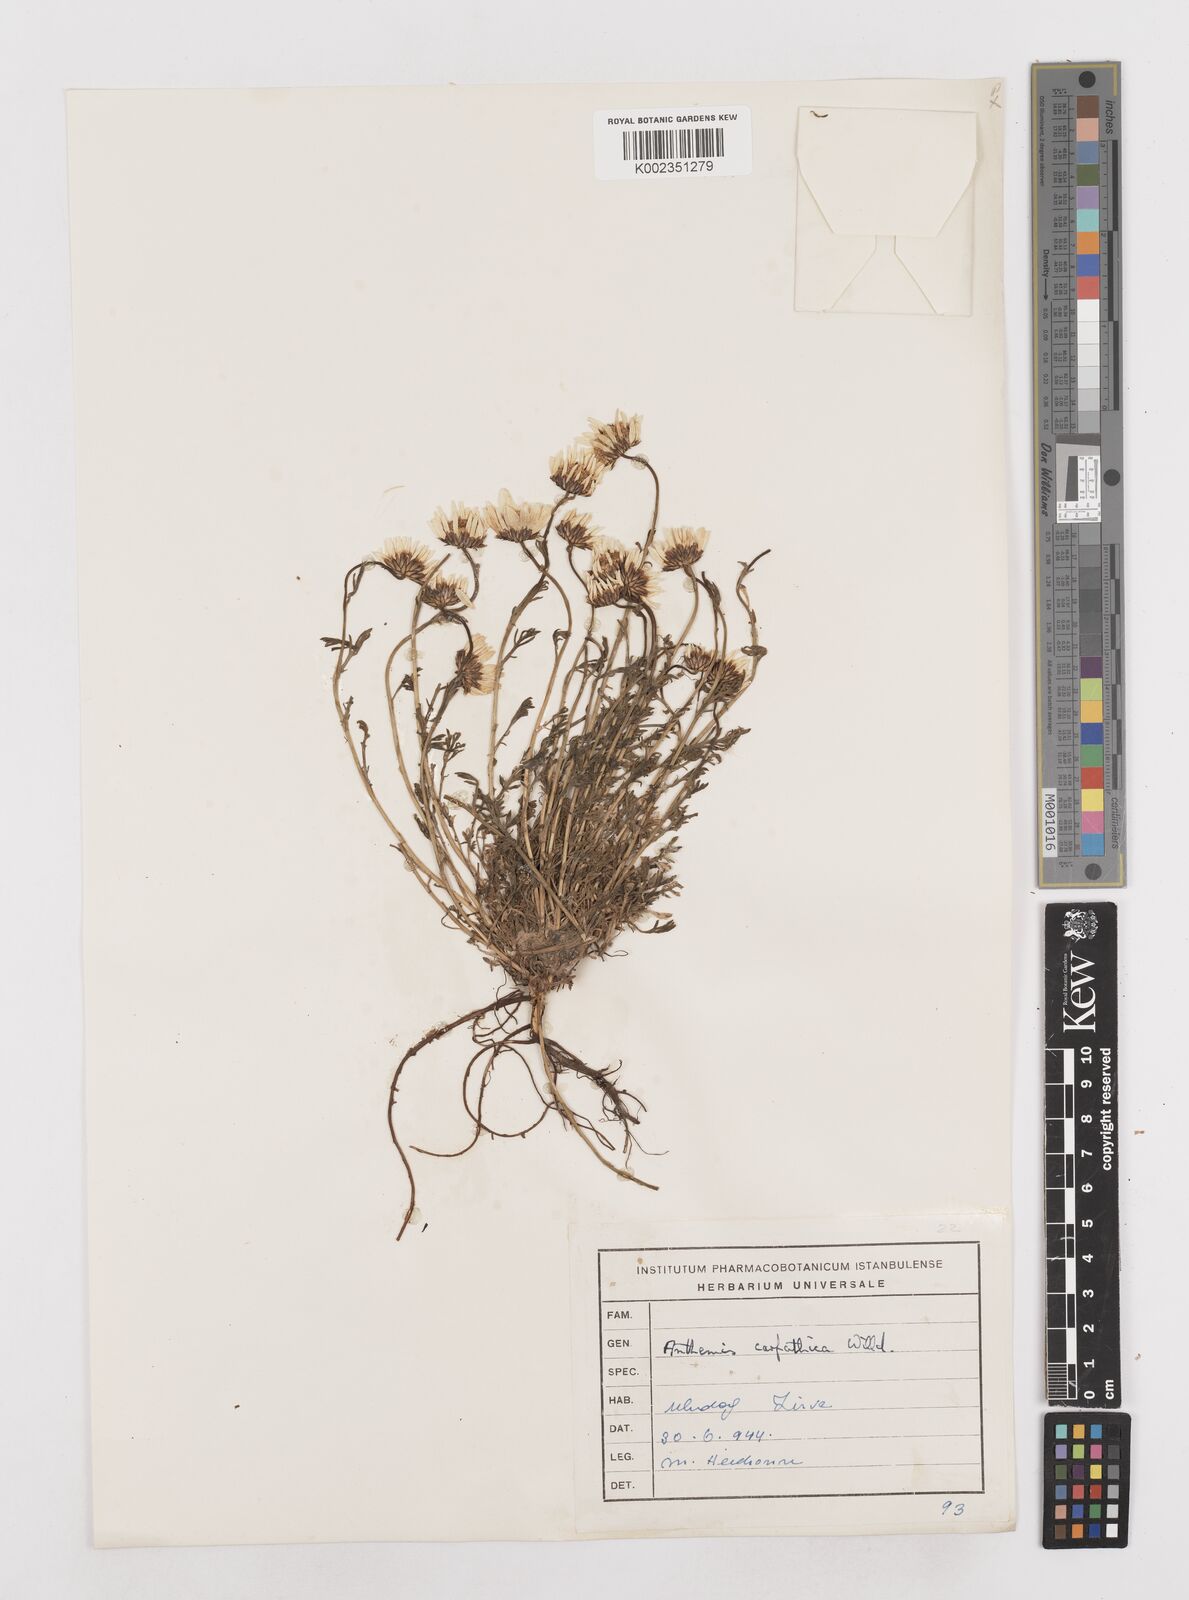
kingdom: Plantae
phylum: Tracheophyta
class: Magnoliopsida
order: Asterales
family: Asteraceae
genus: Anthemis
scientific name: Anthemis cretica
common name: Mountain dog-daisy
